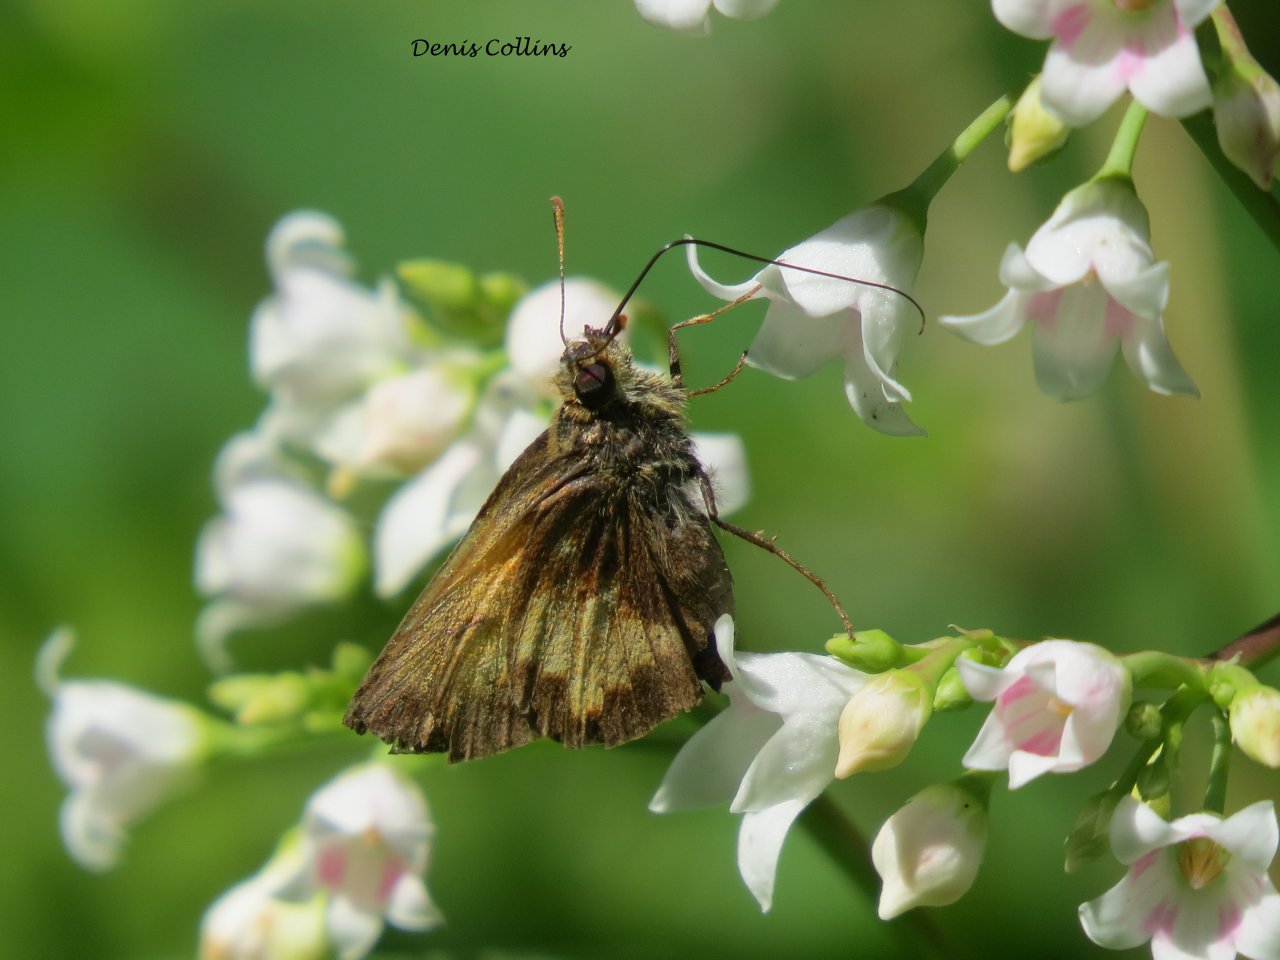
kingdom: Animalia
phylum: Arthropoda
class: Insecta
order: Lepidoptera
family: Hesperiidae
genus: Polites
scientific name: Polites coras
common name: Peck's Skipper
